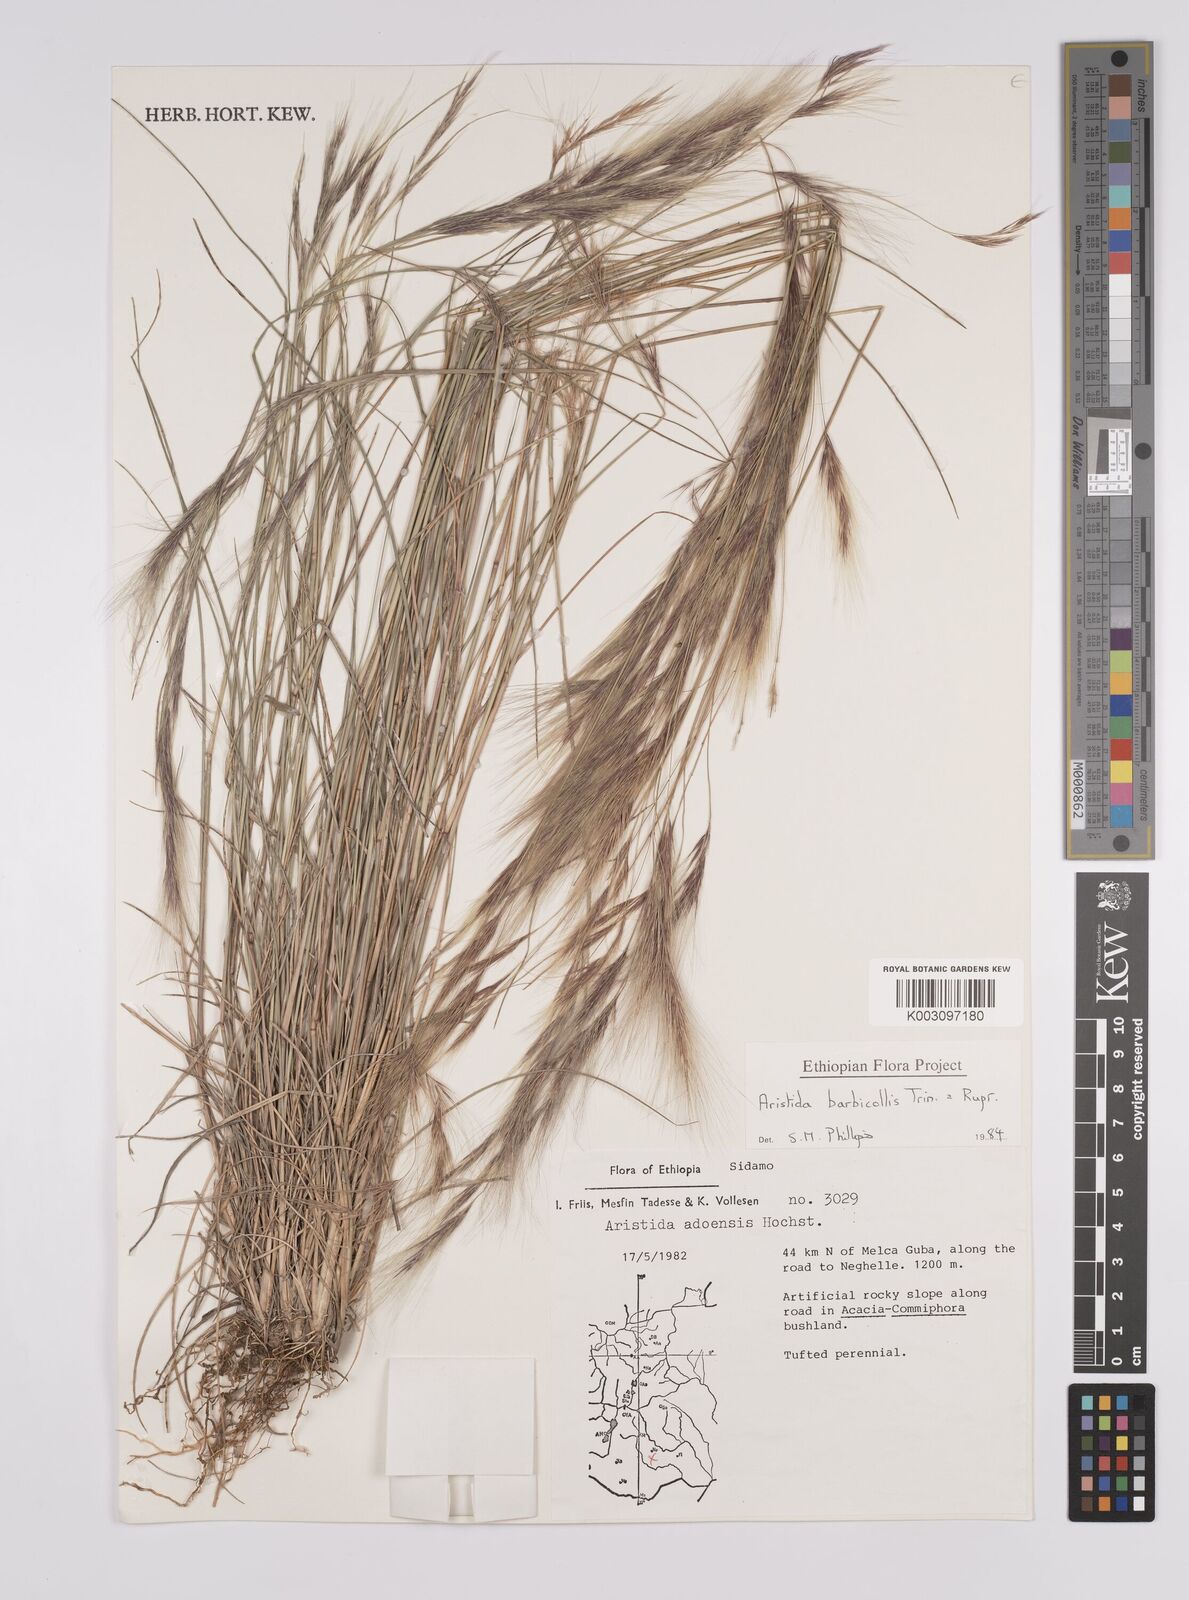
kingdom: Plantae
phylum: Tracheophyta
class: Liliopsida
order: Poales
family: Poaceae
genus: Aristida
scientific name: Aristida barbicollis
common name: Spreading prickle grass
